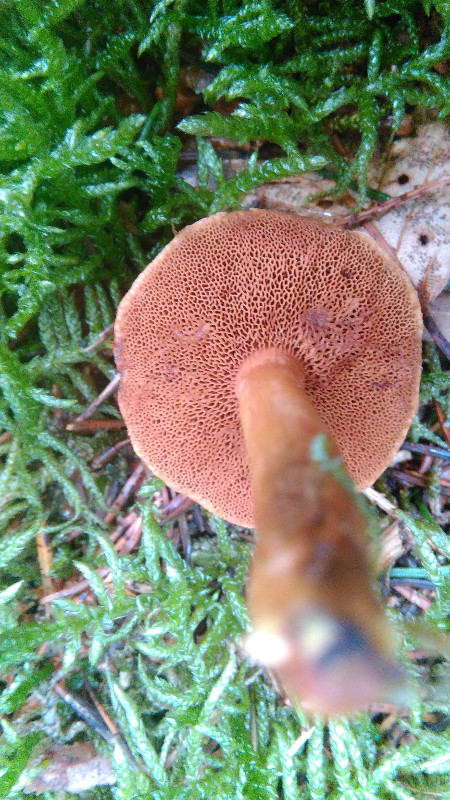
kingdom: Fungi
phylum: Basidiomycota
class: Agaricomycetes
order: Boletales
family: Boletaceae
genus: Chalciporus
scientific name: Chalciporus piperatus
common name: peberrørhat
